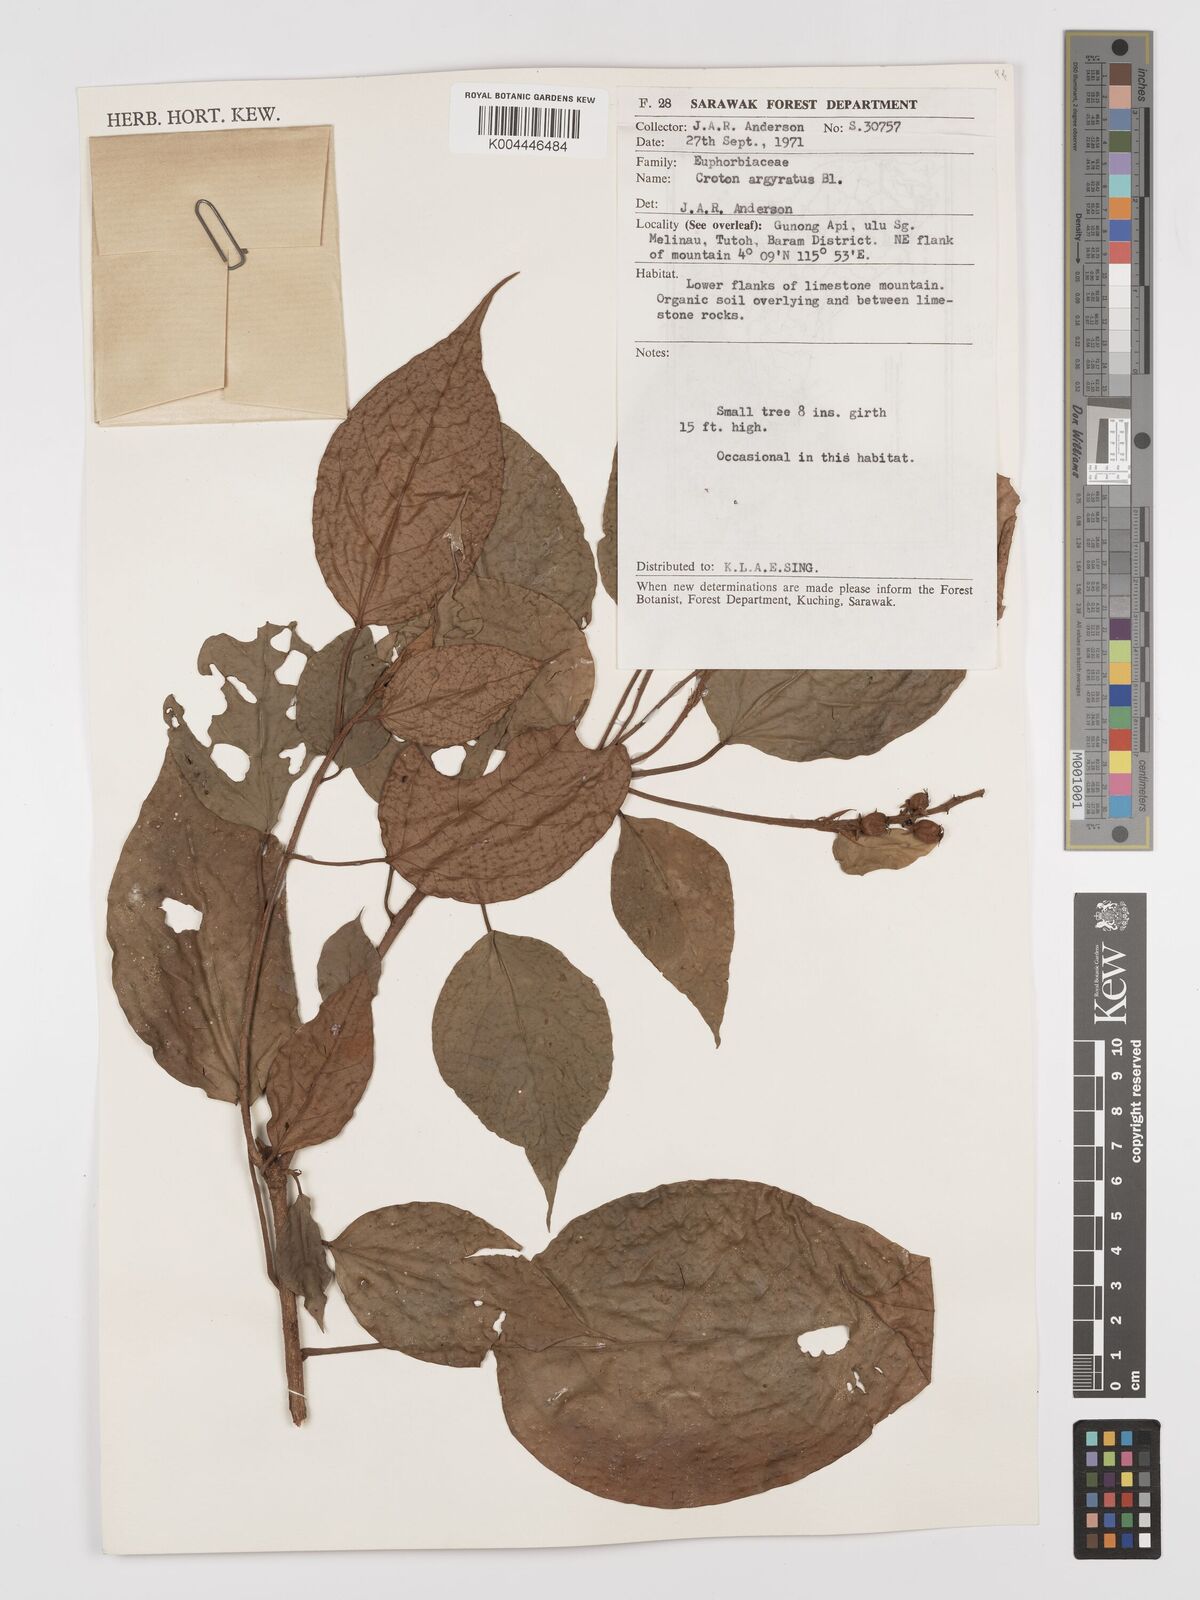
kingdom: Plantae
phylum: Tracheophyta
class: Magnoliopsida
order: Malpighiales
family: Euphorbiaceae
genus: Croton
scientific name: Croton argyratus
